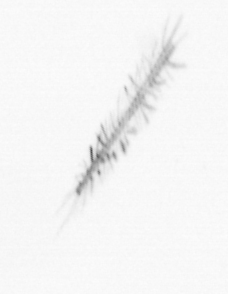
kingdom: Chromista
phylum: Ochrophyta
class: Bacillariophyceae
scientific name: Bacillariophyceae
